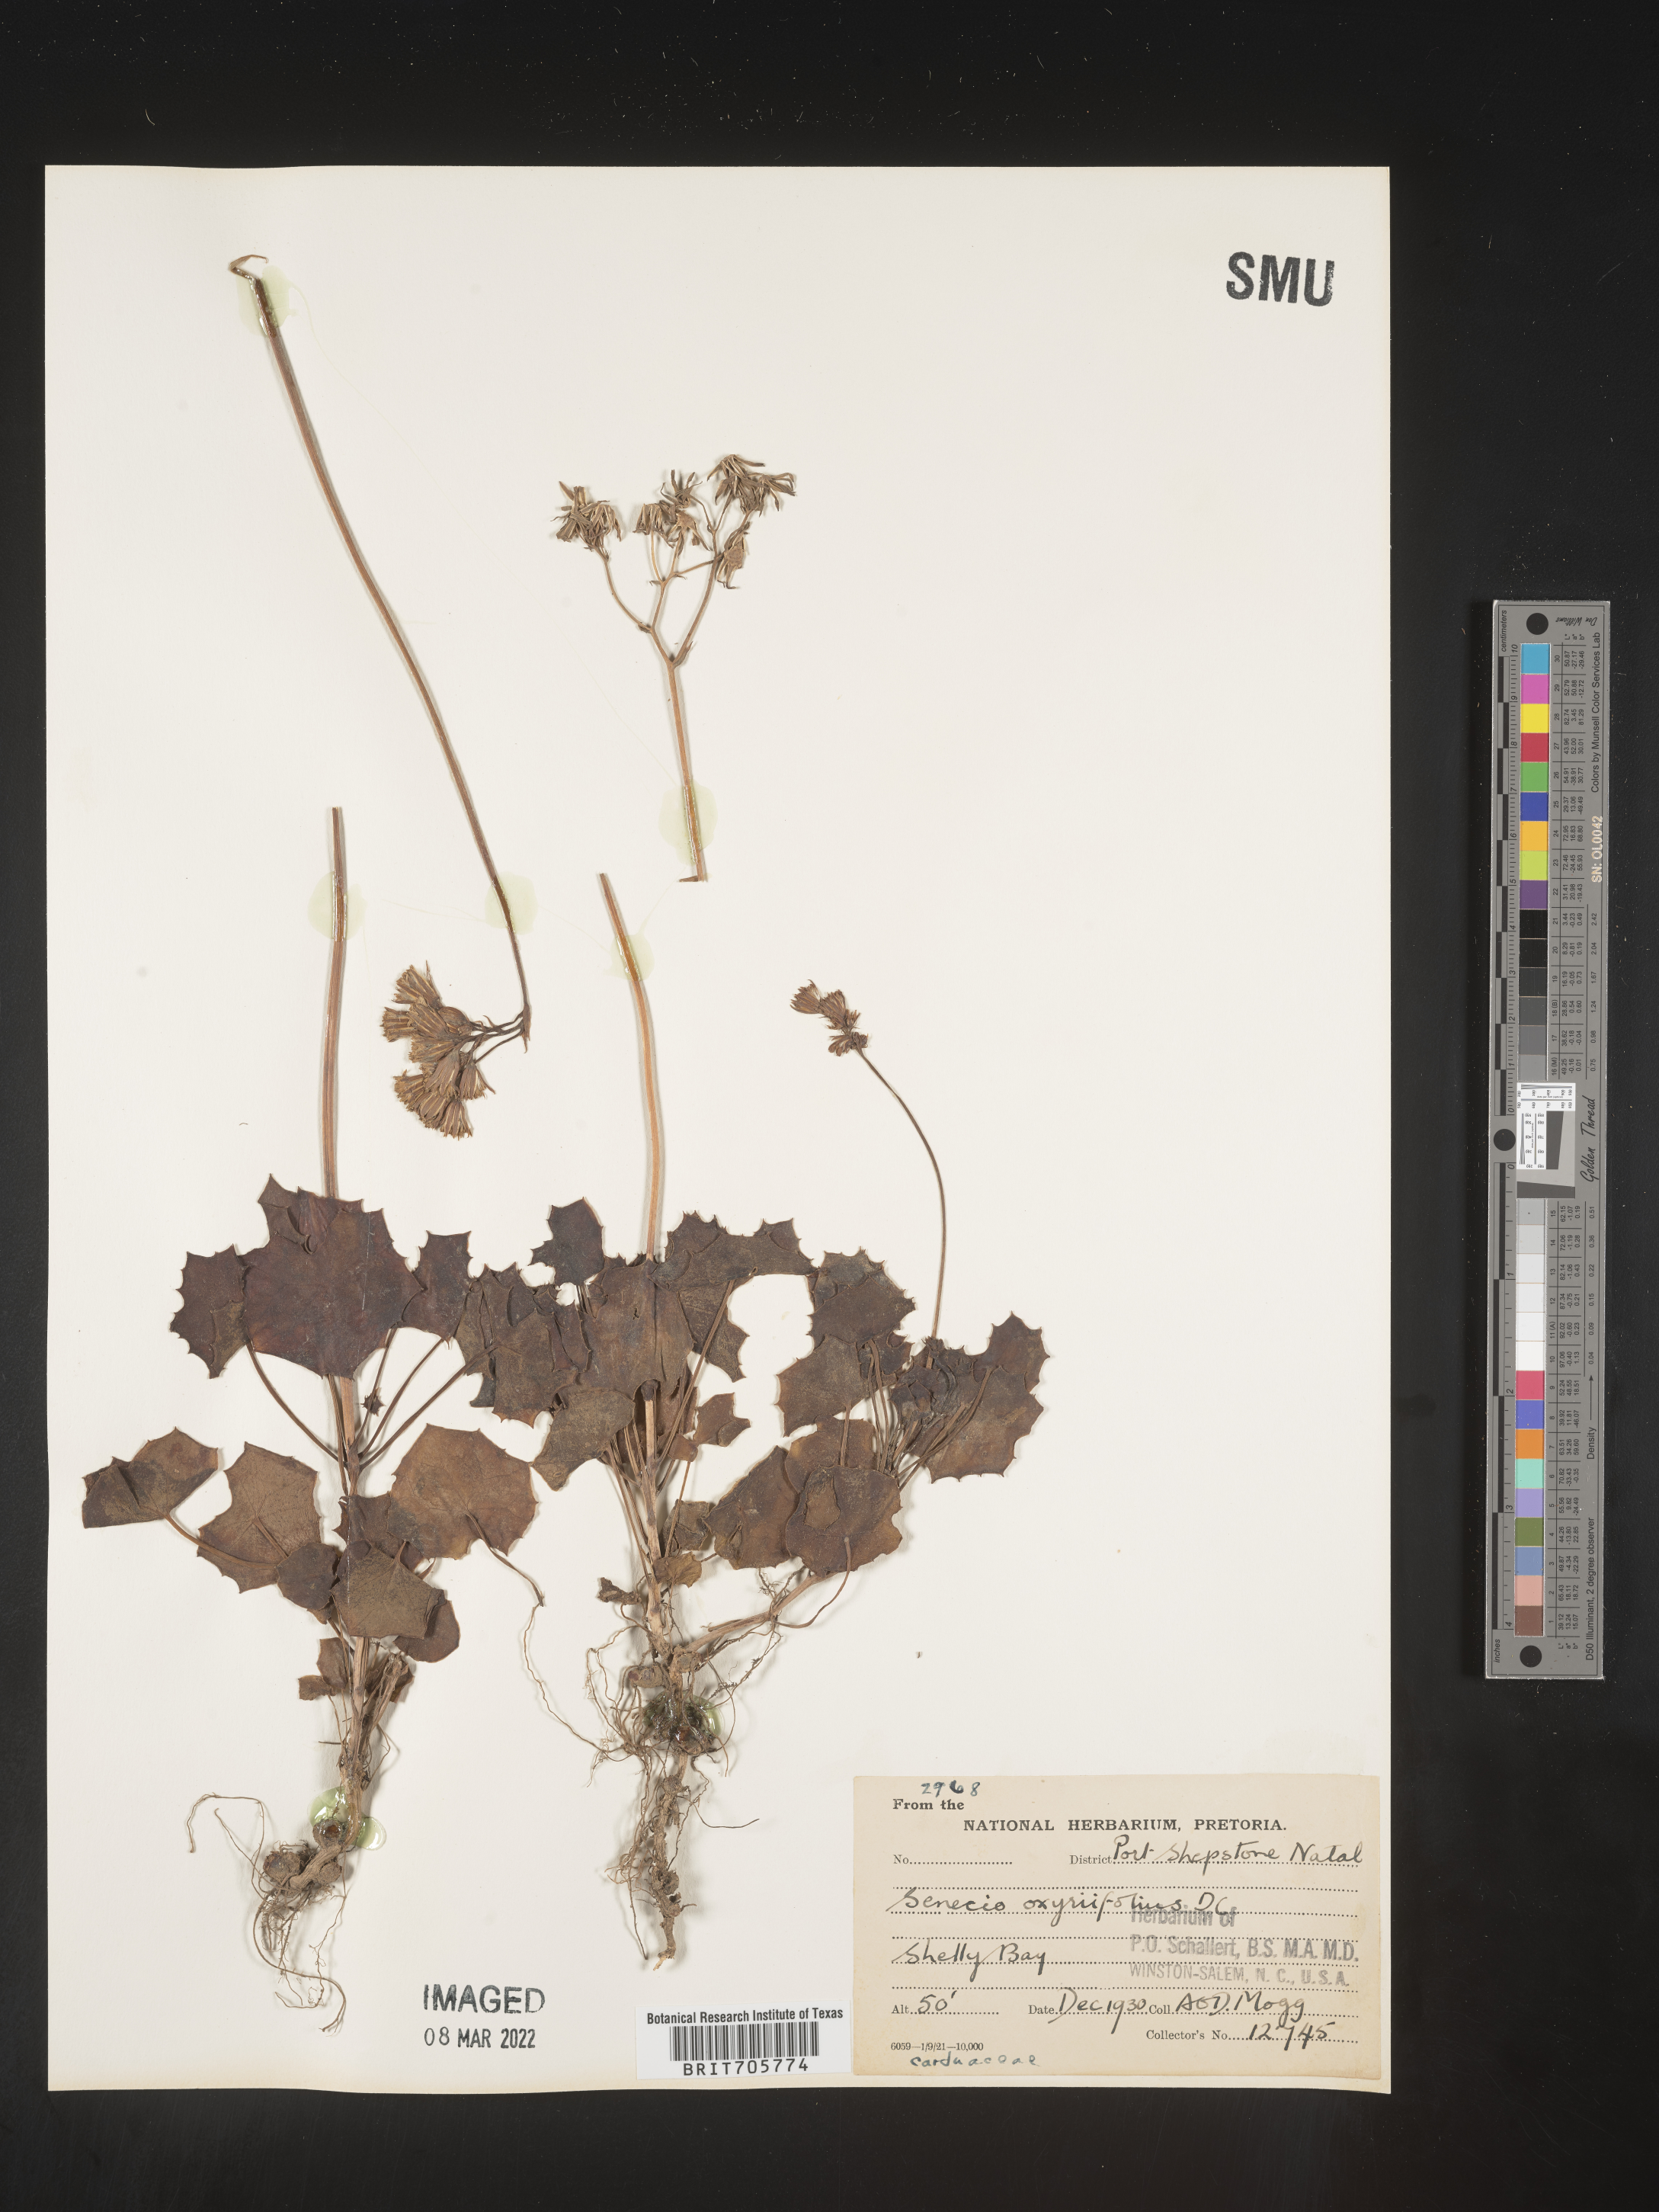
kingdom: Plantae
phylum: Tracheophyta
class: Magnoliopsida
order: Asterales
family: Asteraceae
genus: Senecio
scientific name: Senecio
